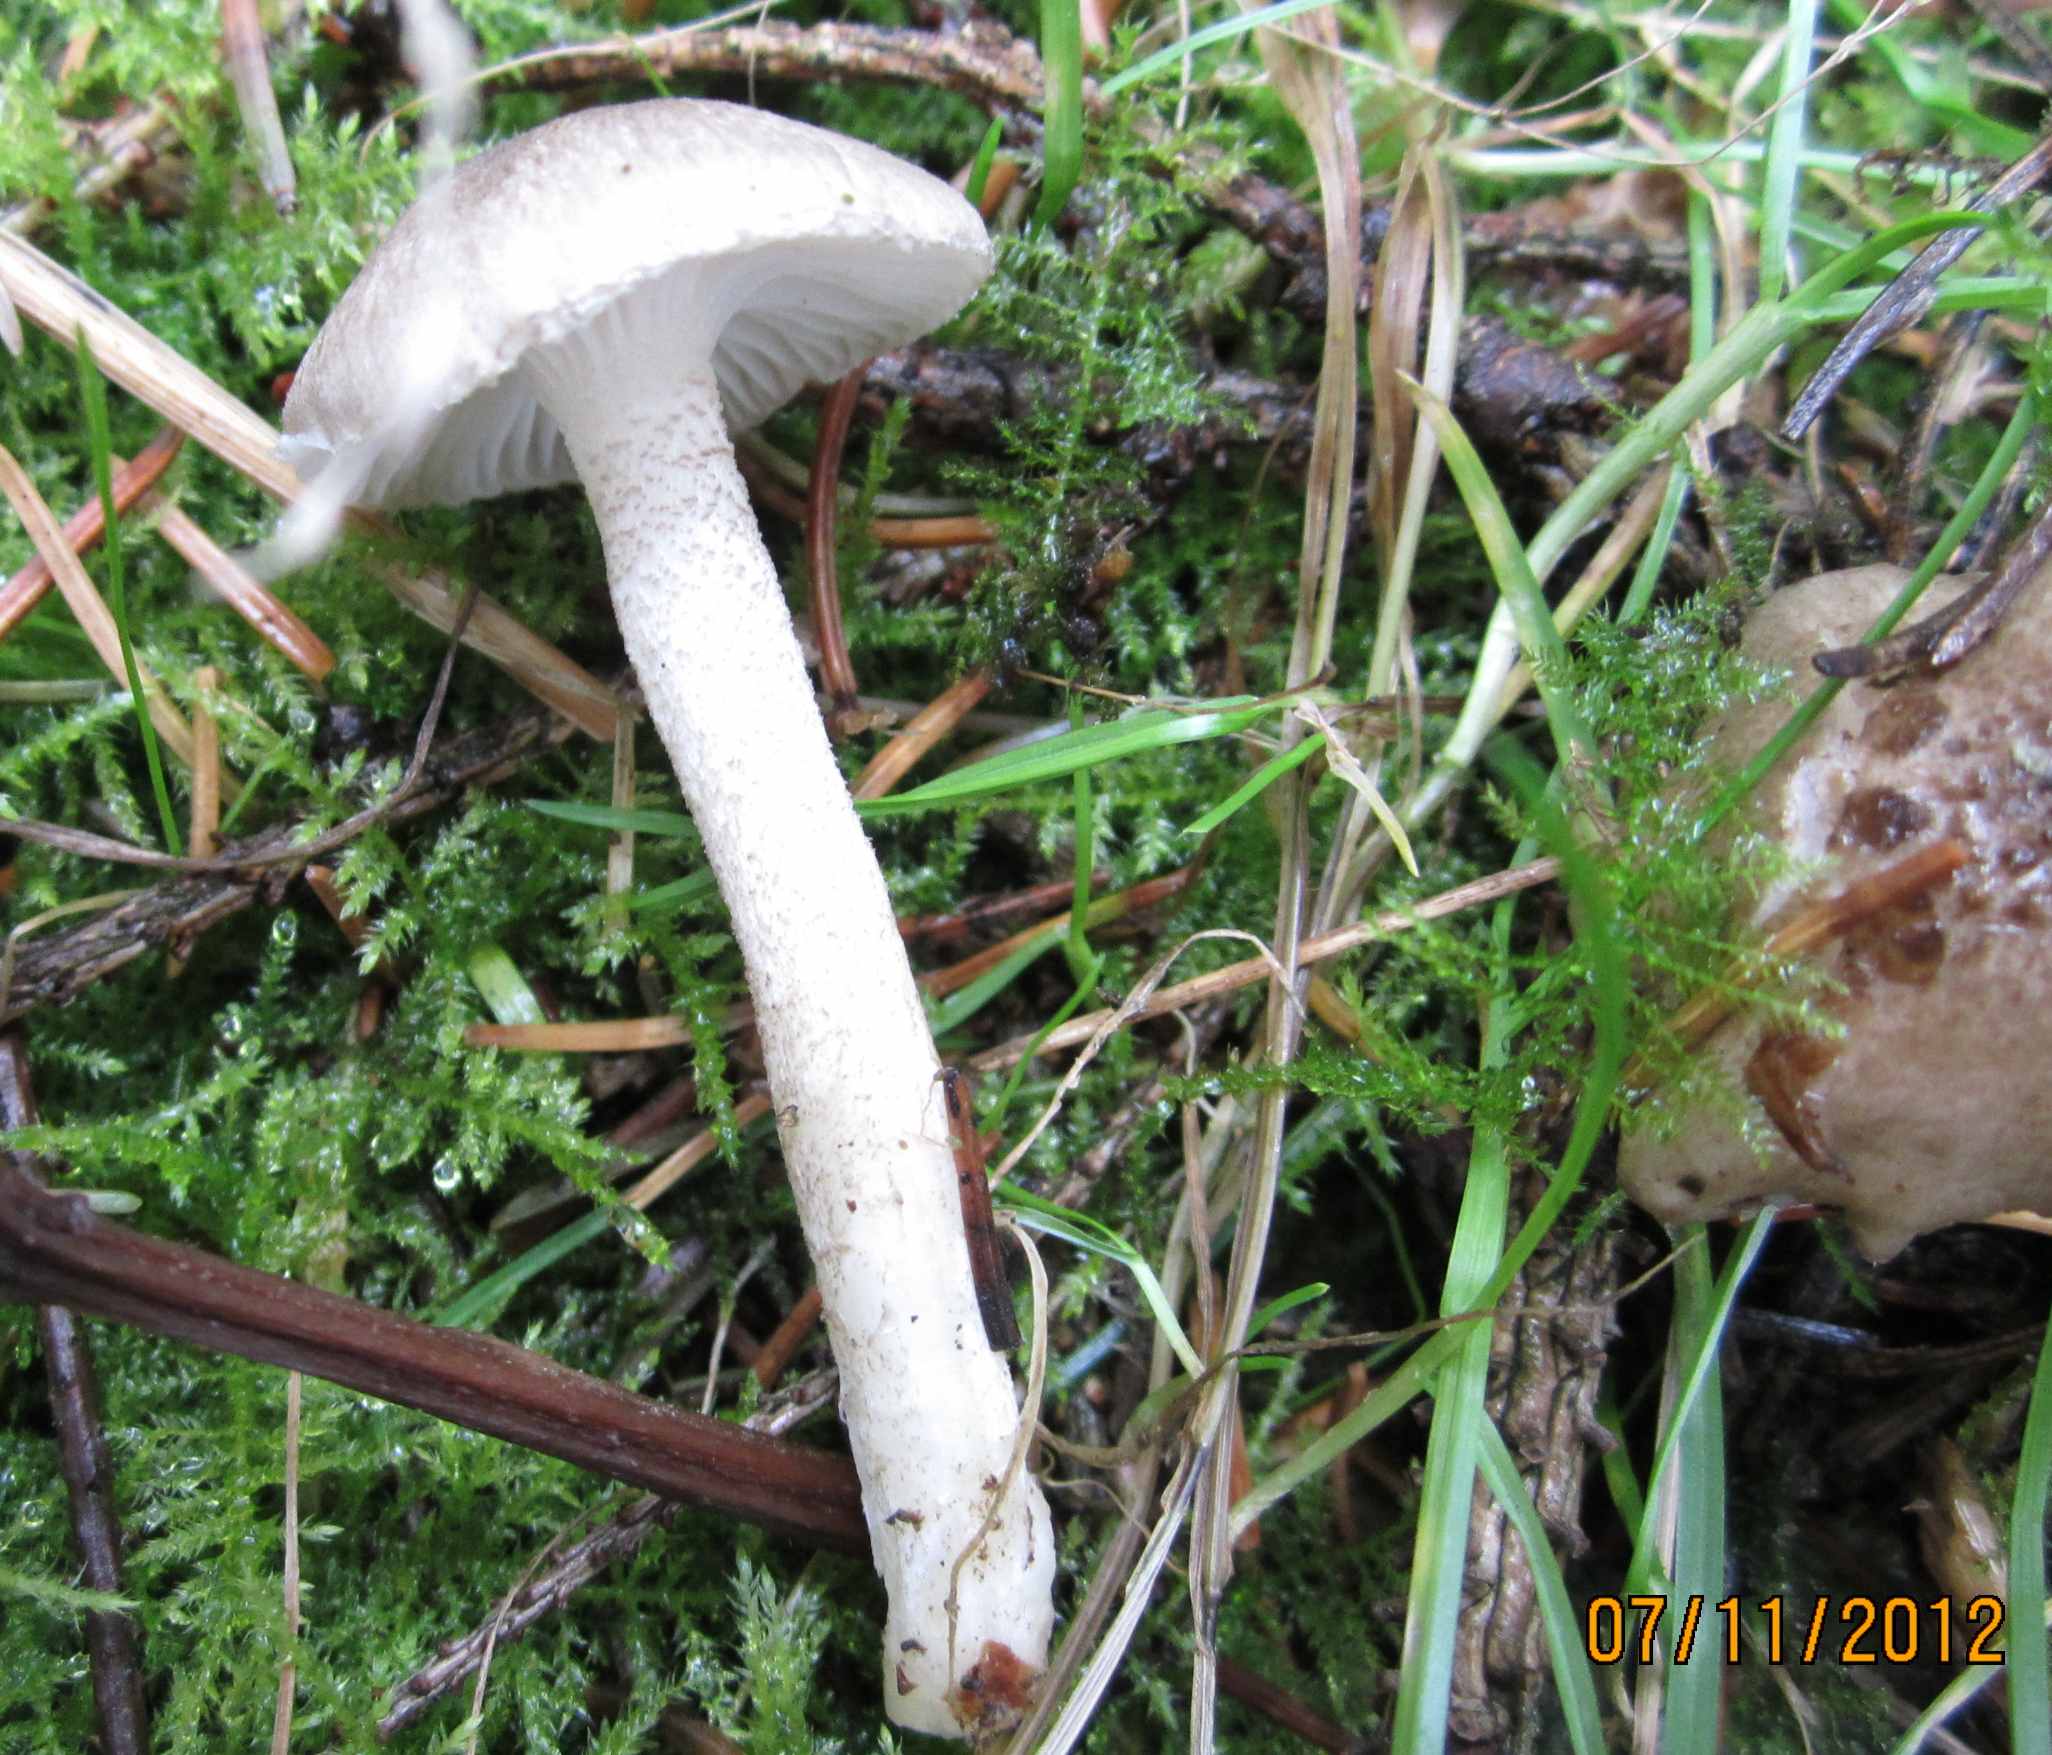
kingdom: Fungi
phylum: Basidiomycota
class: Agaricomycetes
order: Agaricales
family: Hygrophoraceae
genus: Hygrophorus
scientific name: Hygrophorus pustulatus
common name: mørkprikket sneglehat
